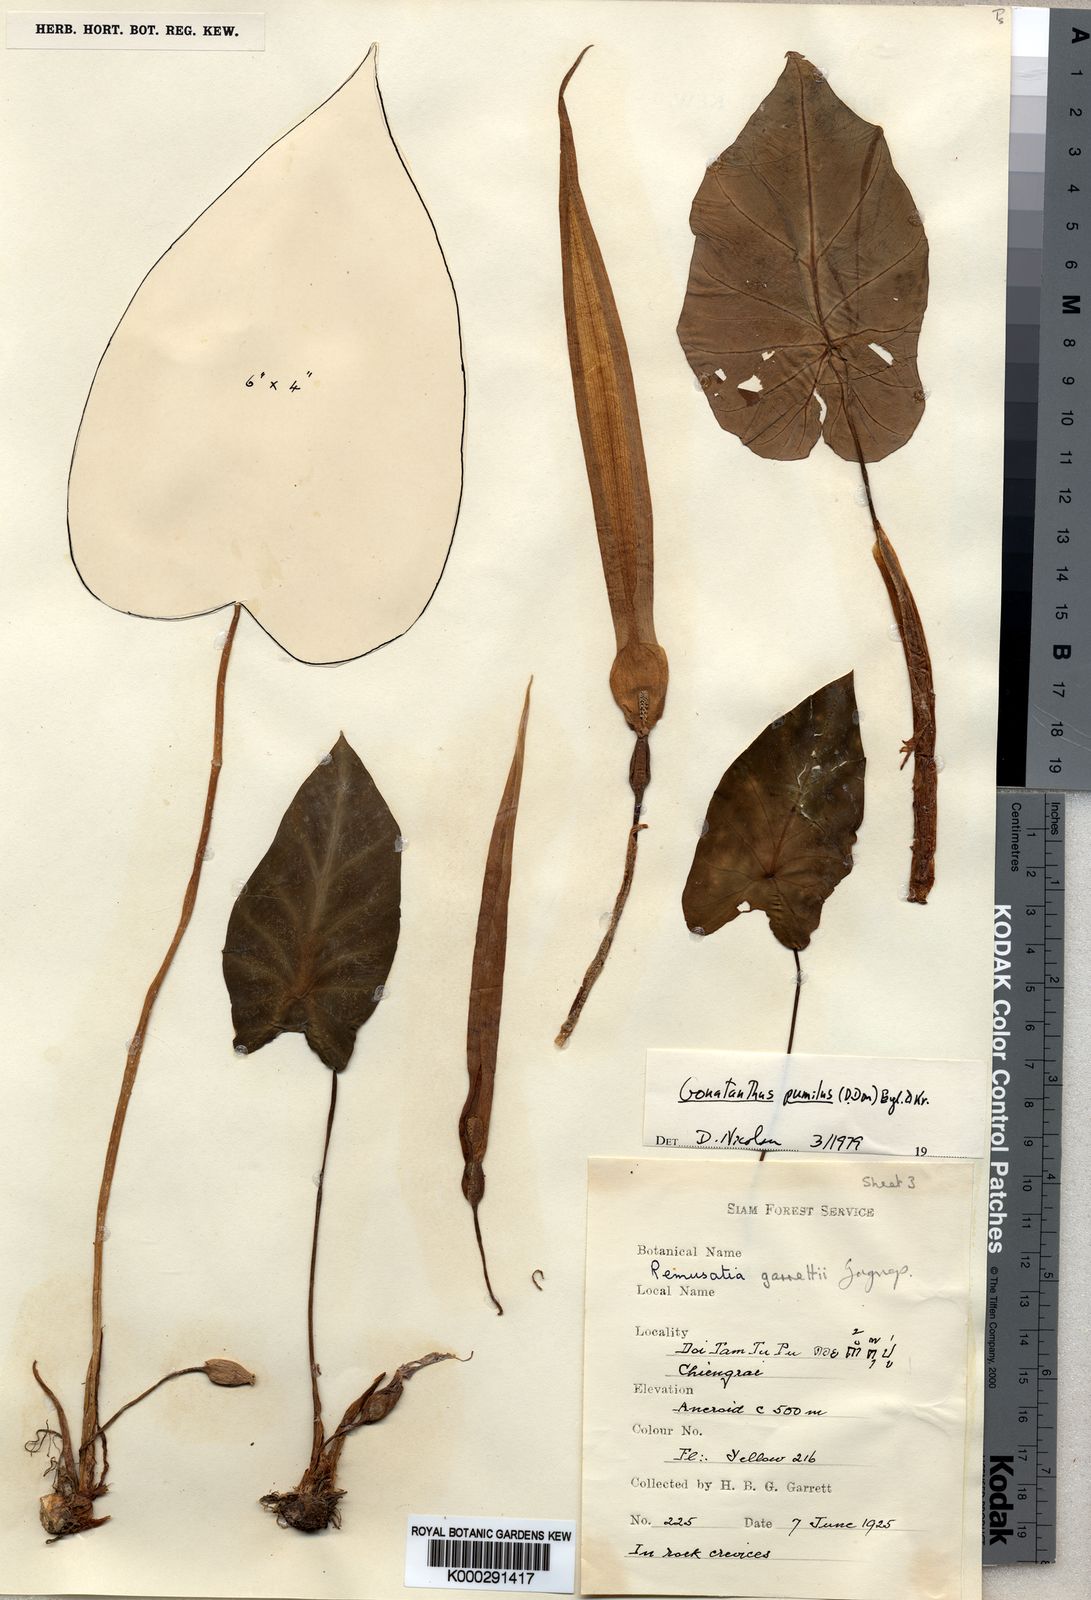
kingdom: Plantae
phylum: Tracheophyta
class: Liliopsida
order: Alismatales
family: Araceae
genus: Remusatia
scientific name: Remusatia pumila
